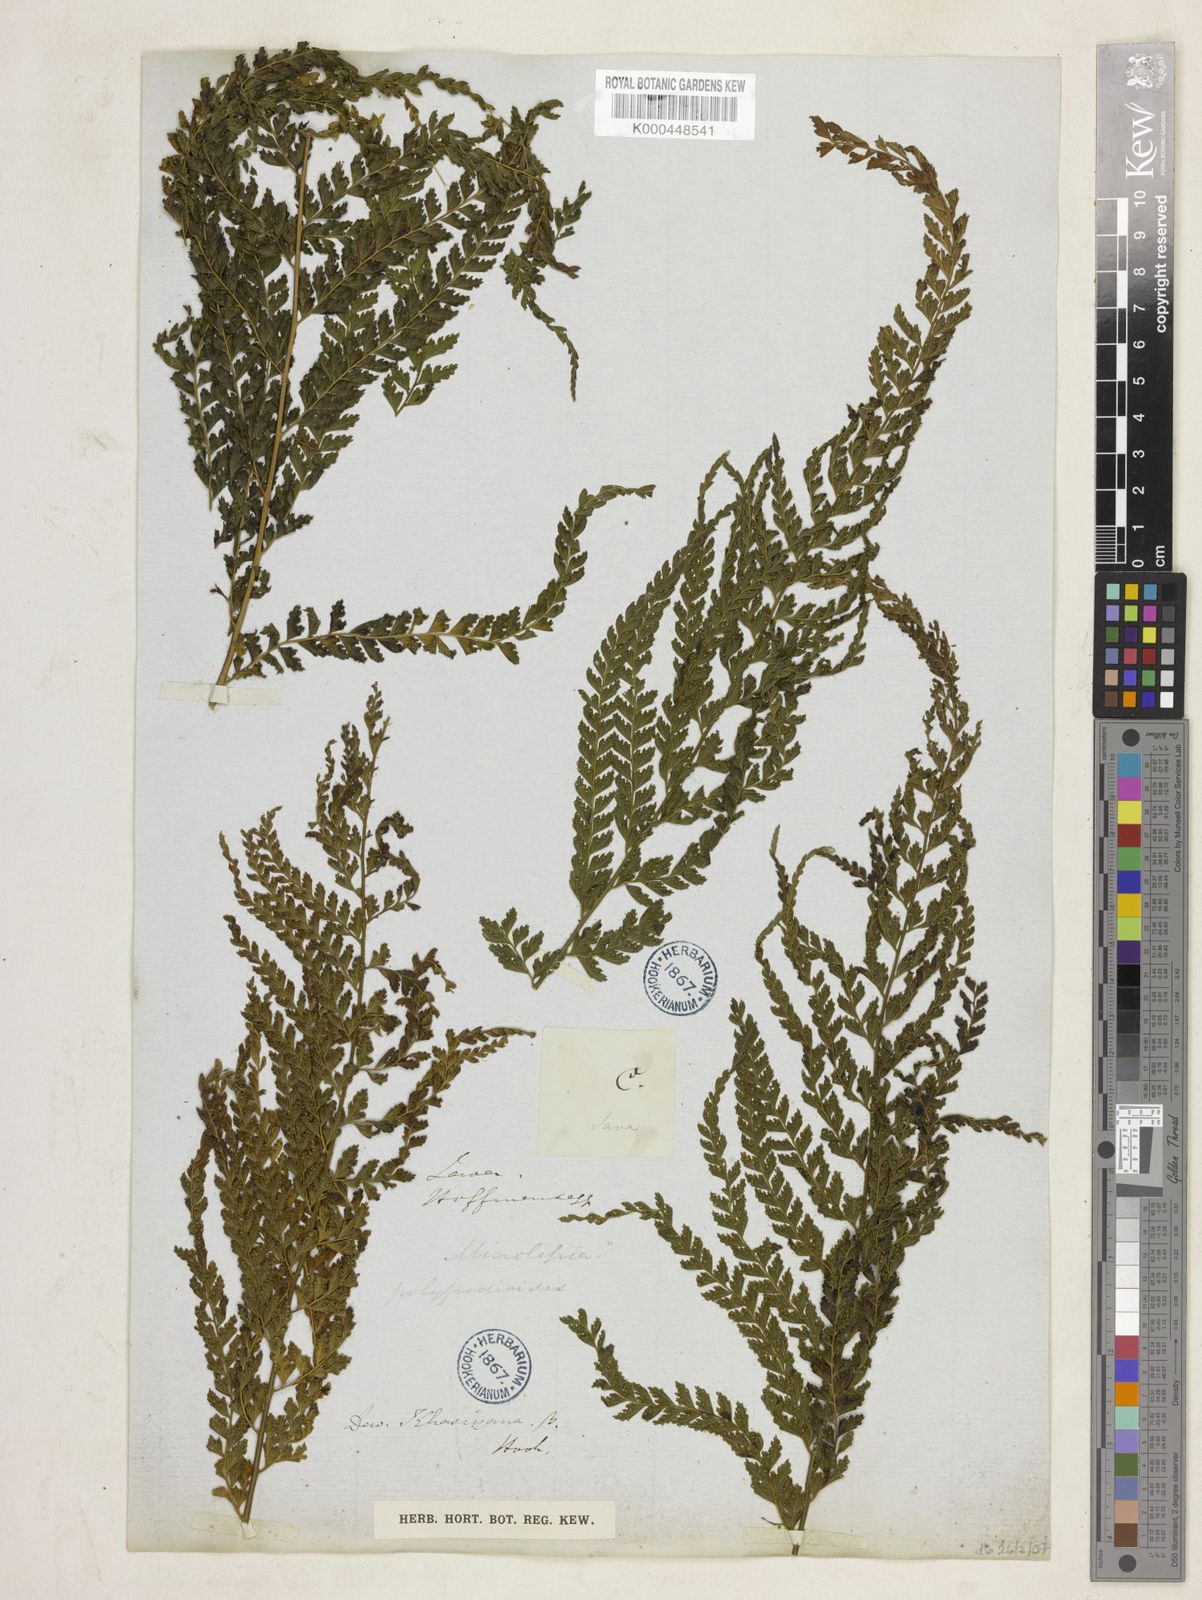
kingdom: Plantae
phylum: Tracheophyta
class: Polypodiopsida
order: Polypodiales
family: Dennstaedtiaceae
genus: Microlepia
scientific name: Microlepia strigosa
